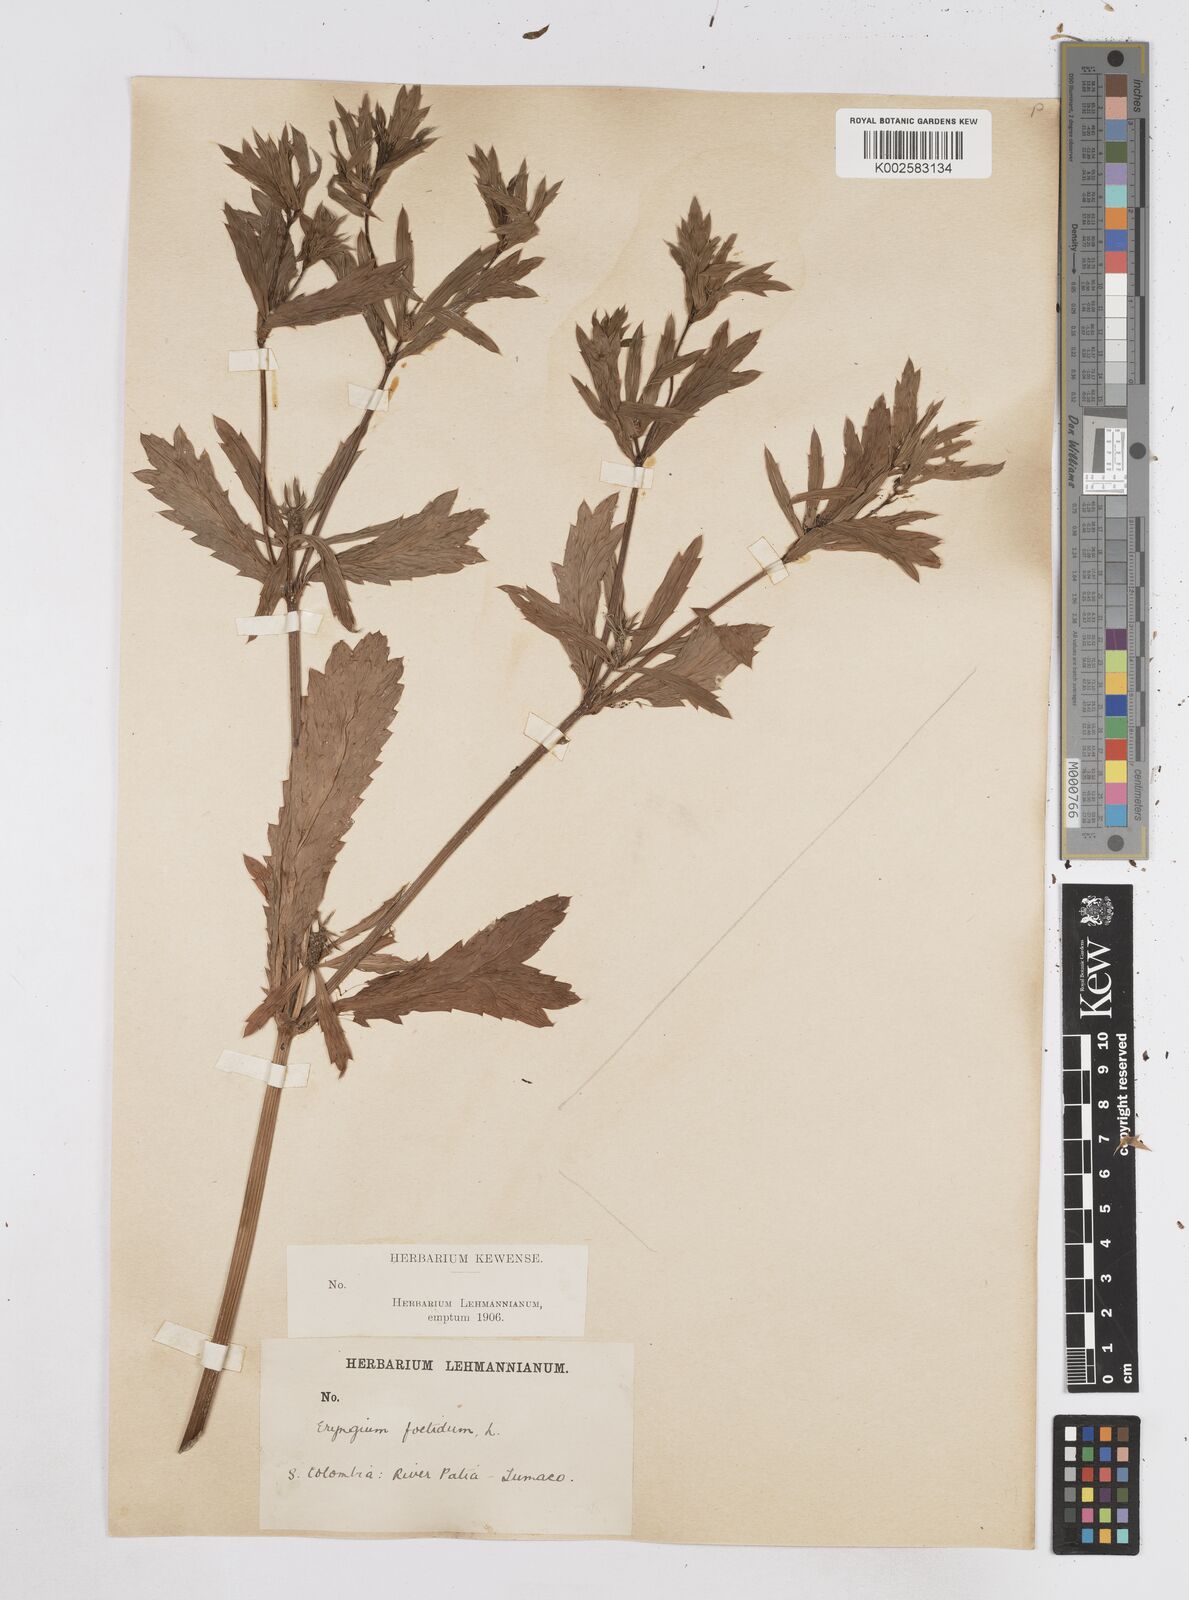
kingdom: Plantae
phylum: Tracheophyta
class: Magnoliopsida
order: Apiales
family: Apiaceae
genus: Eryngium
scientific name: Eryngium foetidum
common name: Fitweed
